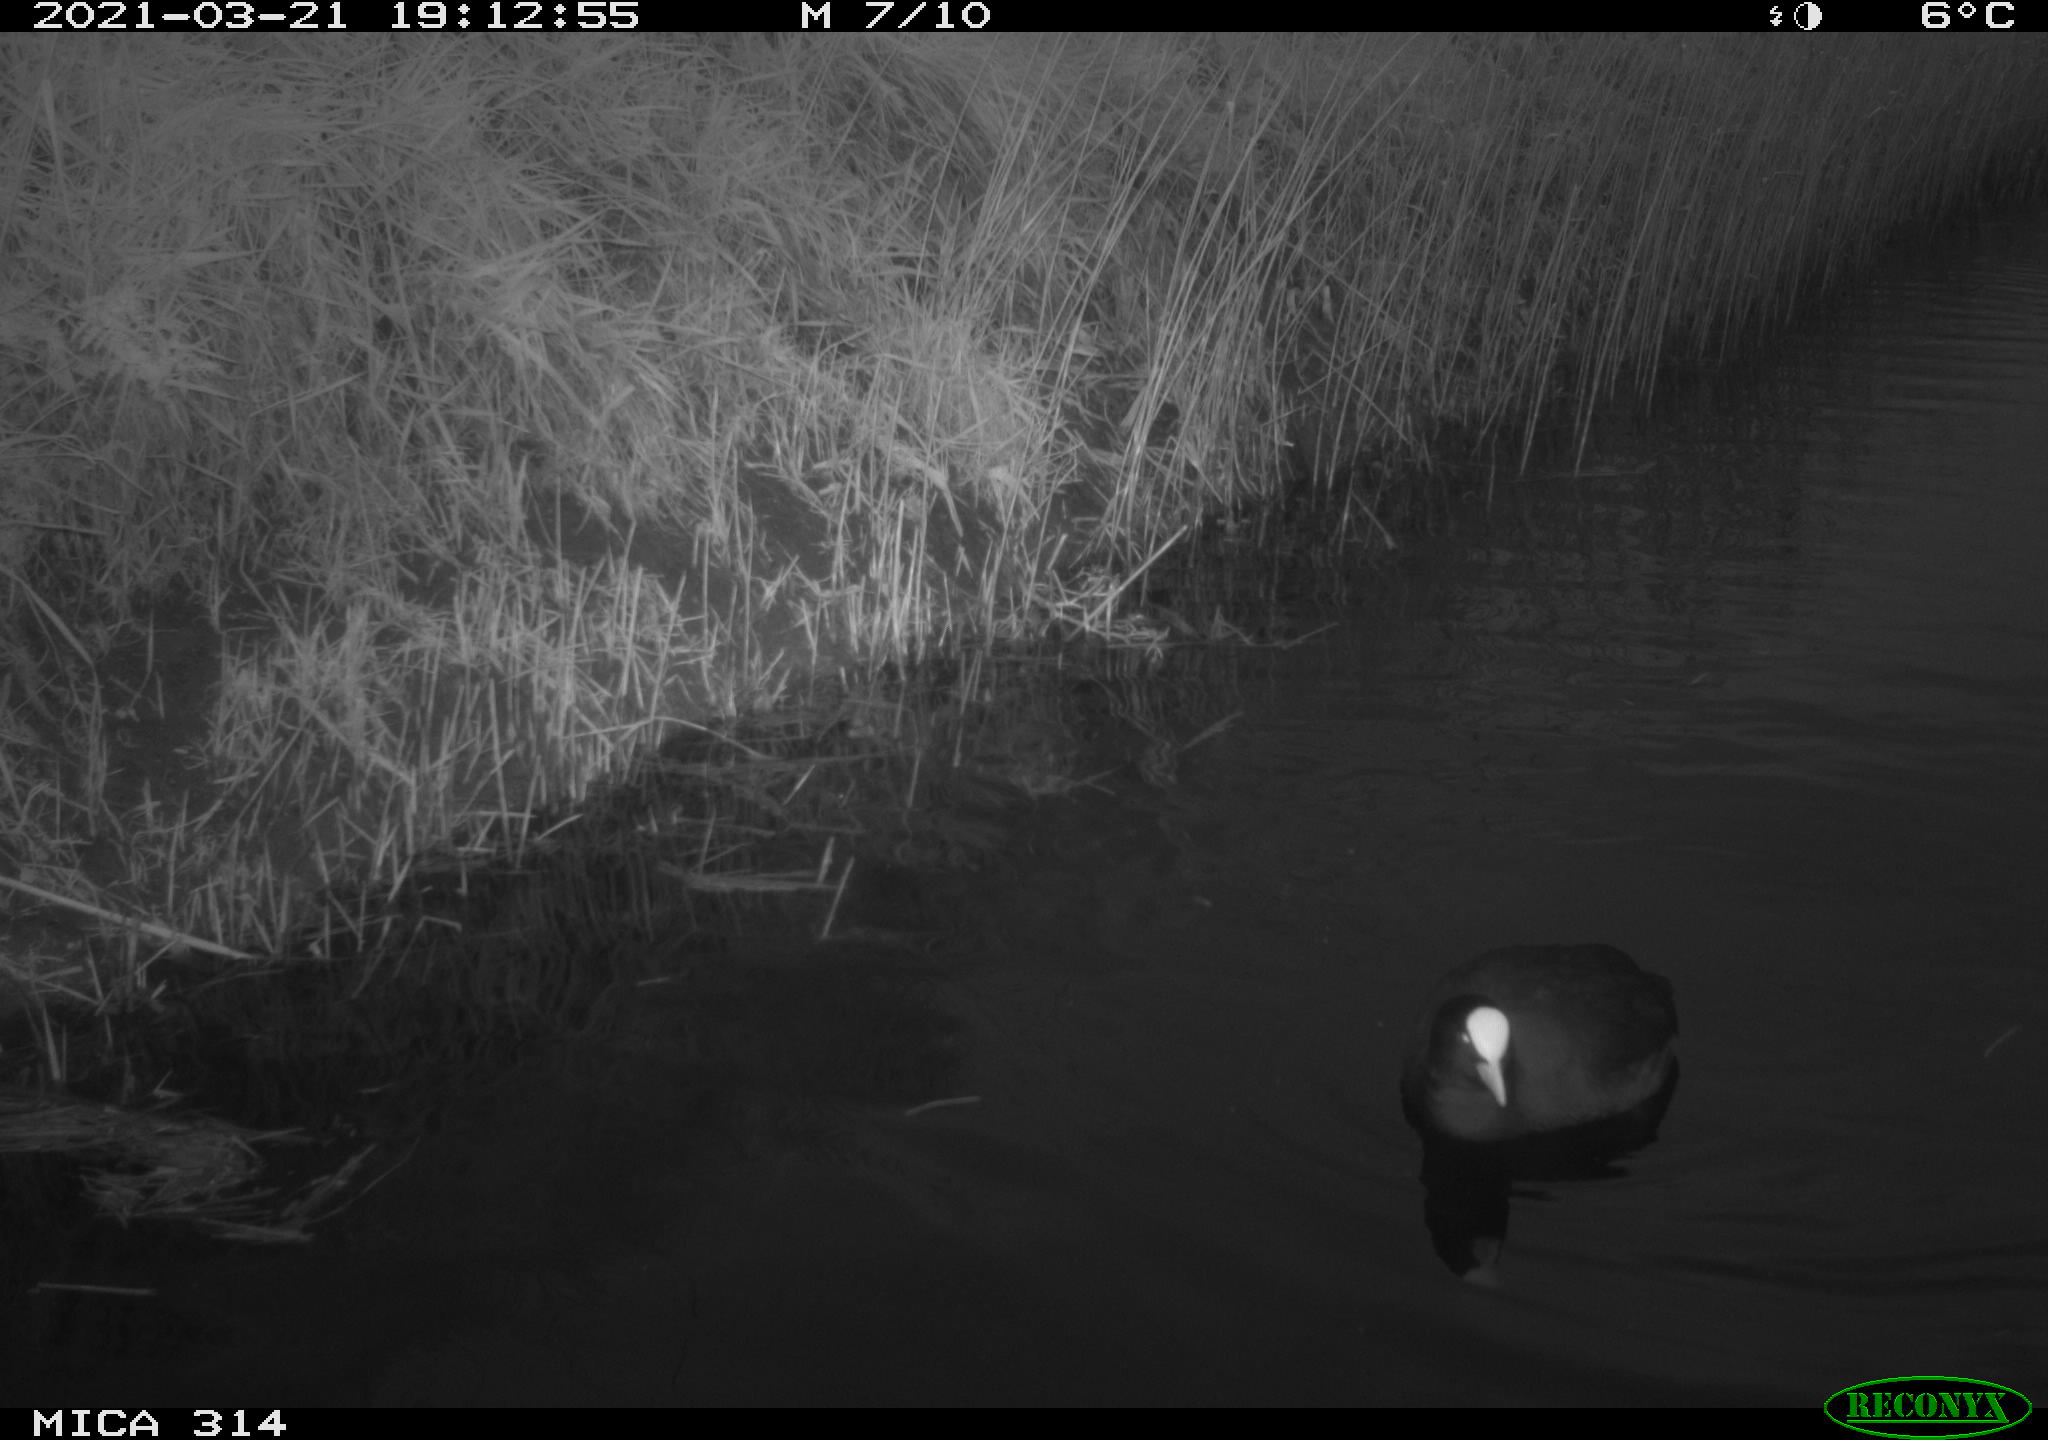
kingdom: Animalia
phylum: Chordata
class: Aves
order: Gruiformes
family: Rallidae
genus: Fulica
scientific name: Fulica atra
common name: Eurasian coot
